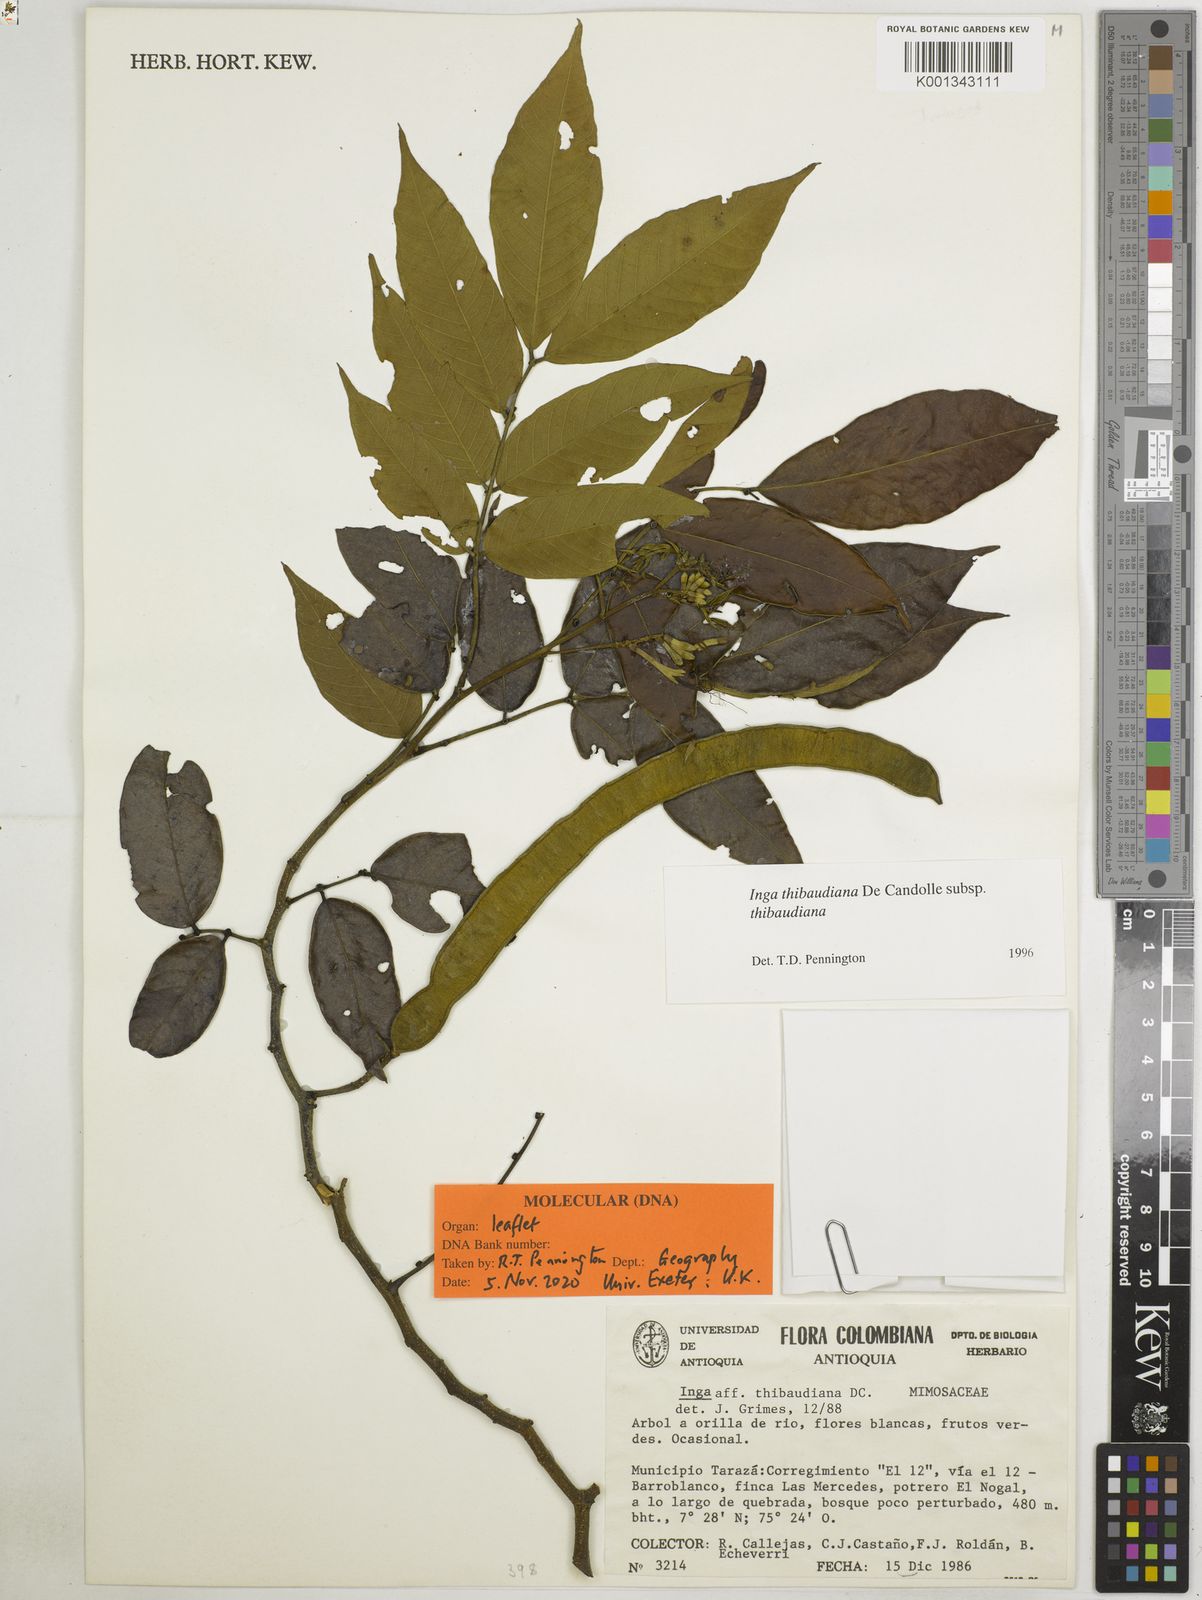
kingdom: Plantae
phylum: Tracheophyta
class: Magnoliopsida
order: Fabales
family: Fabaceae
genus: Inga
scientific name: Inga thibaudiana
